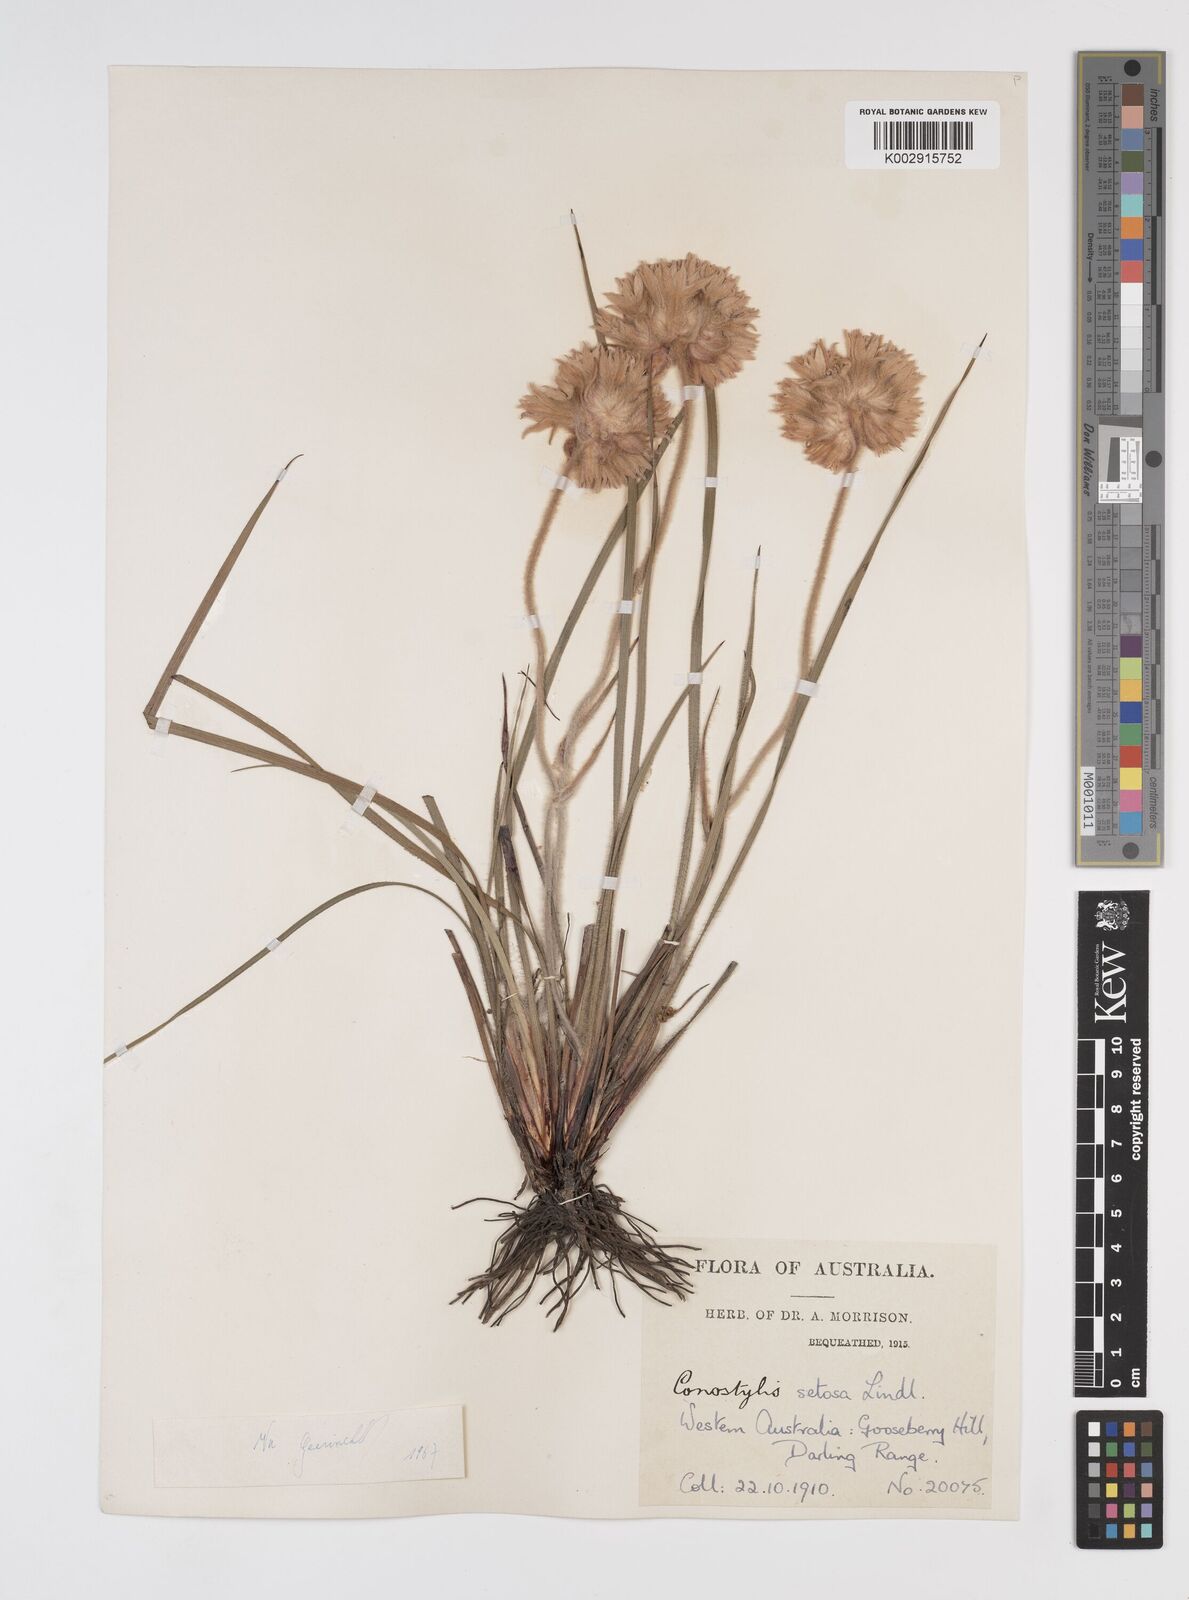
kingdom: Plantae
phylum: Tracheophyta
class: Liliopsida
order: Commelinales
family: Haemodoraceae
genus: Conostylis
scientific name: Conostylis setosa
